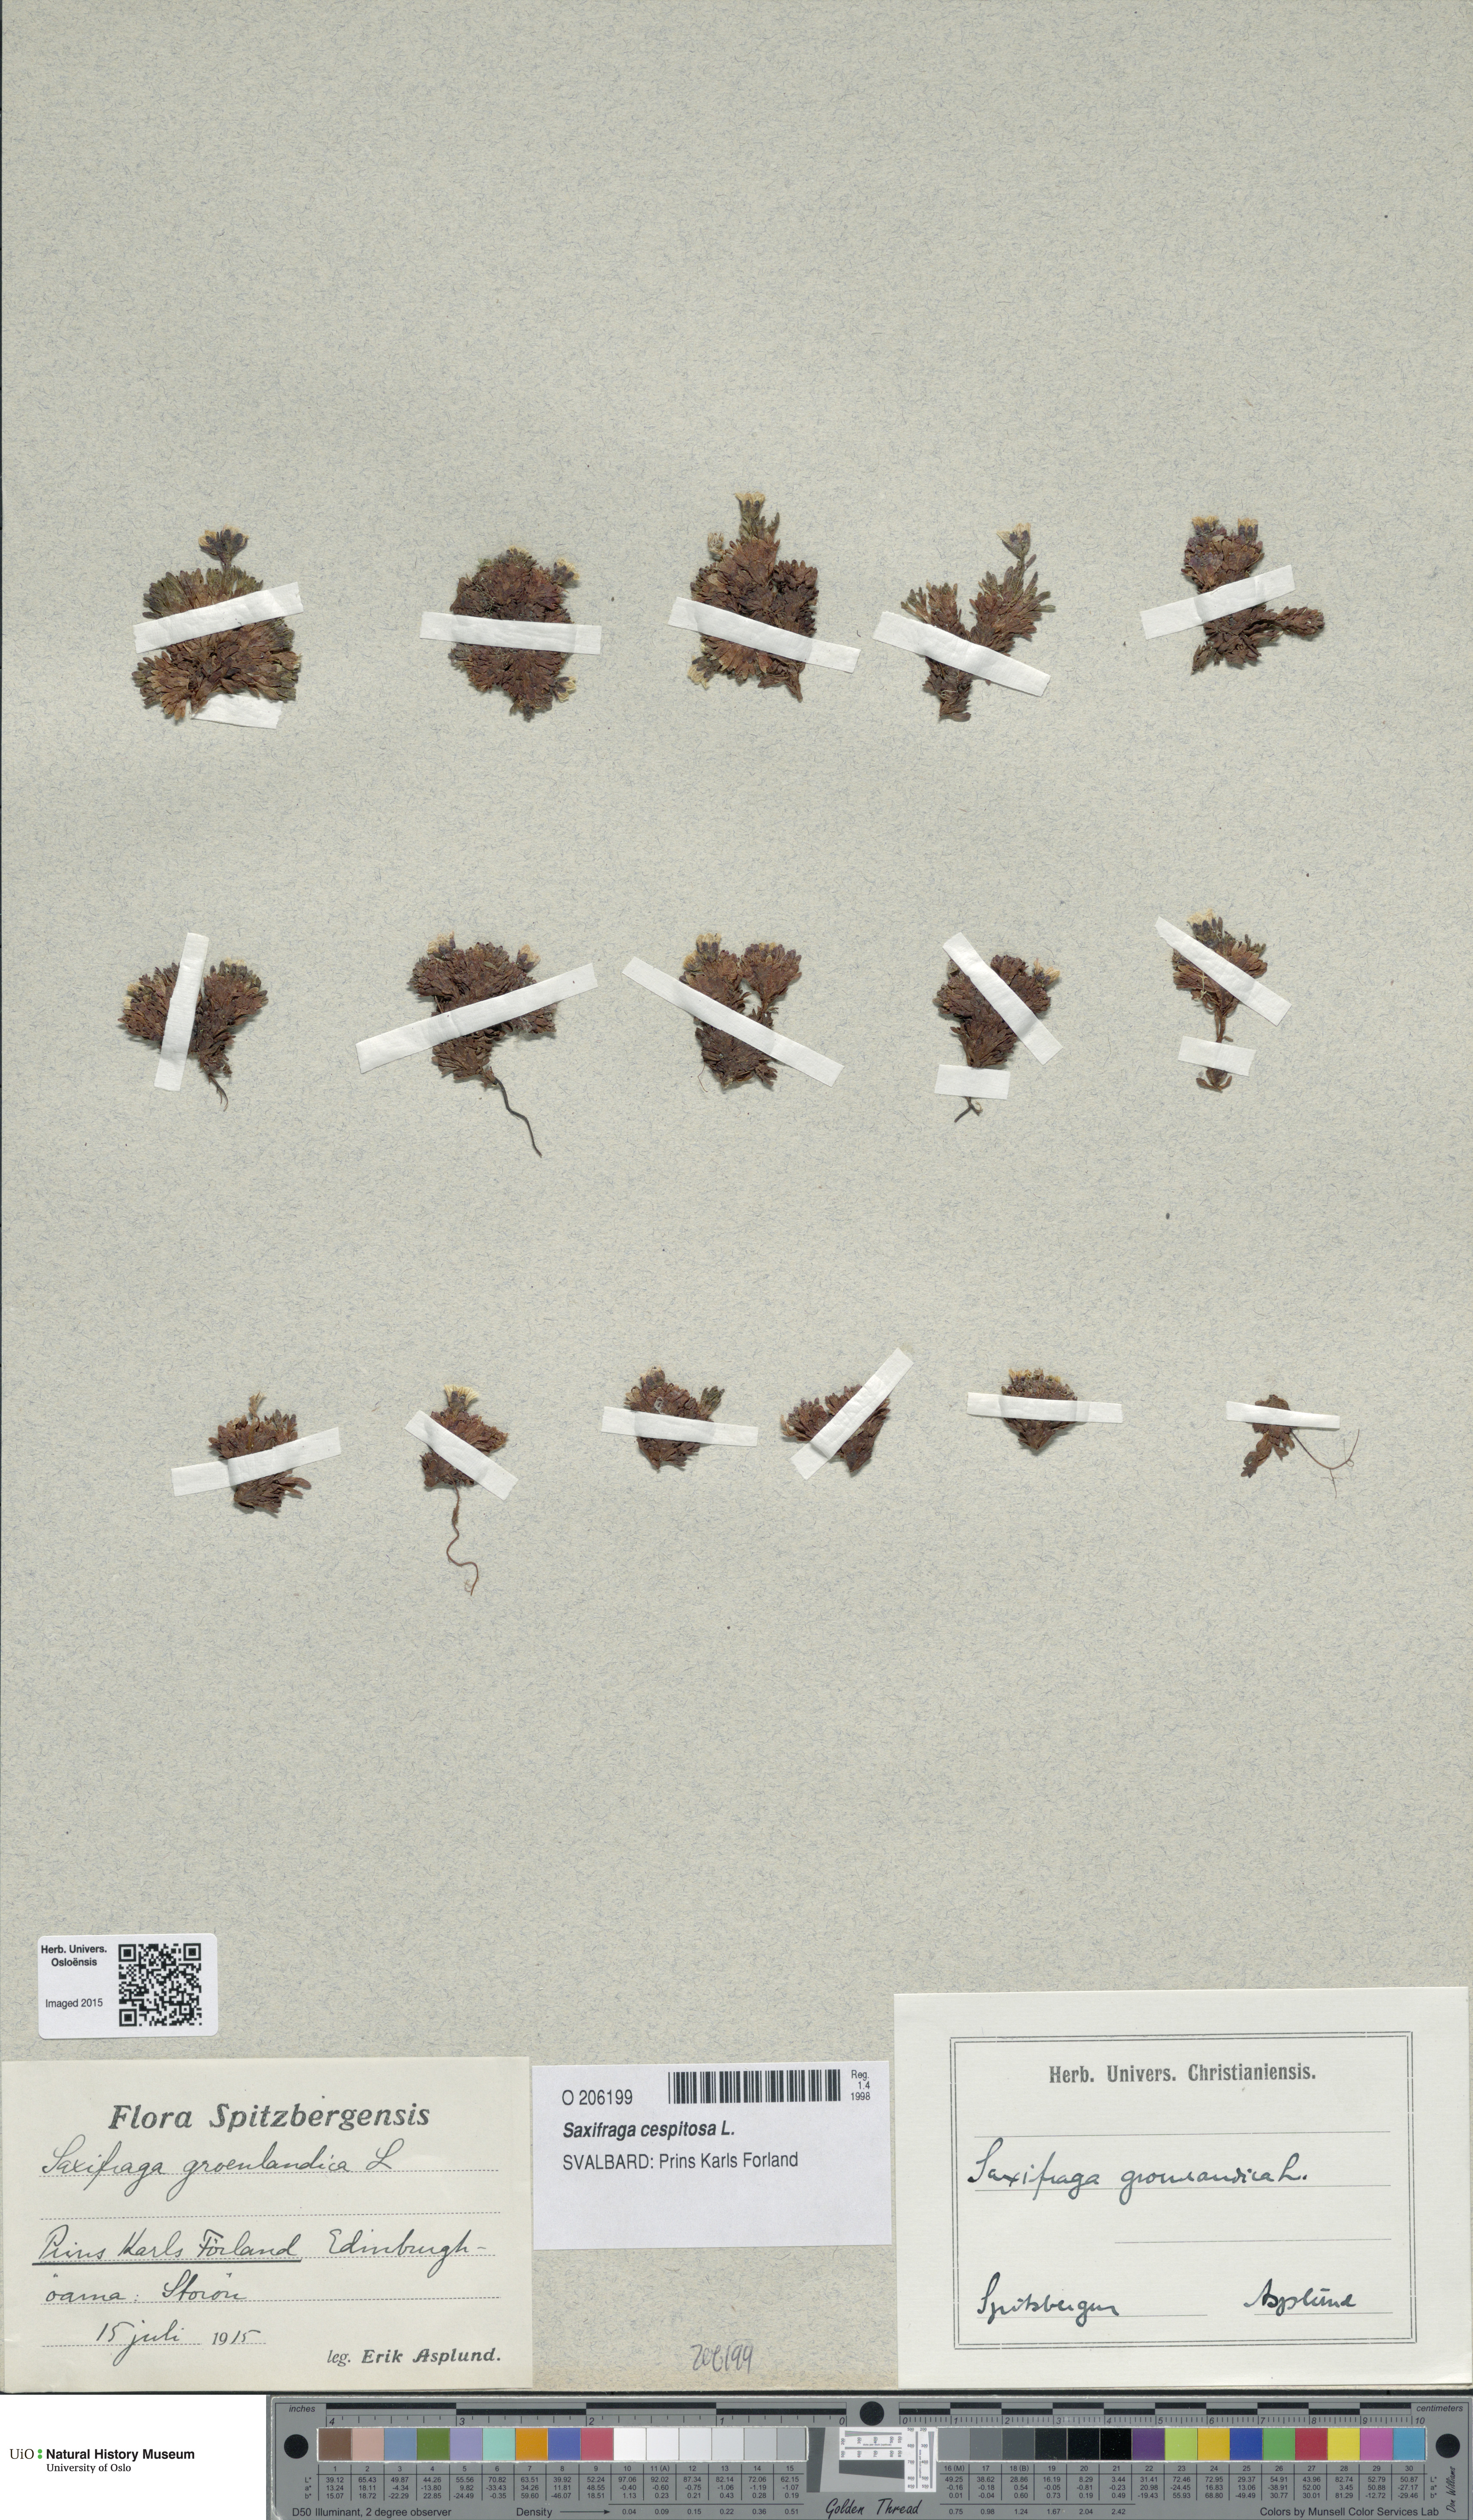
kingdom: Plantae
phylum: Tracheophyta
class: Magnoliopsida
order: Saxifragales
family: Saxifragaceae
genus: Saxifraga
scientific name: Saxifraga cespitosa
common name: Tufted saxifrage
